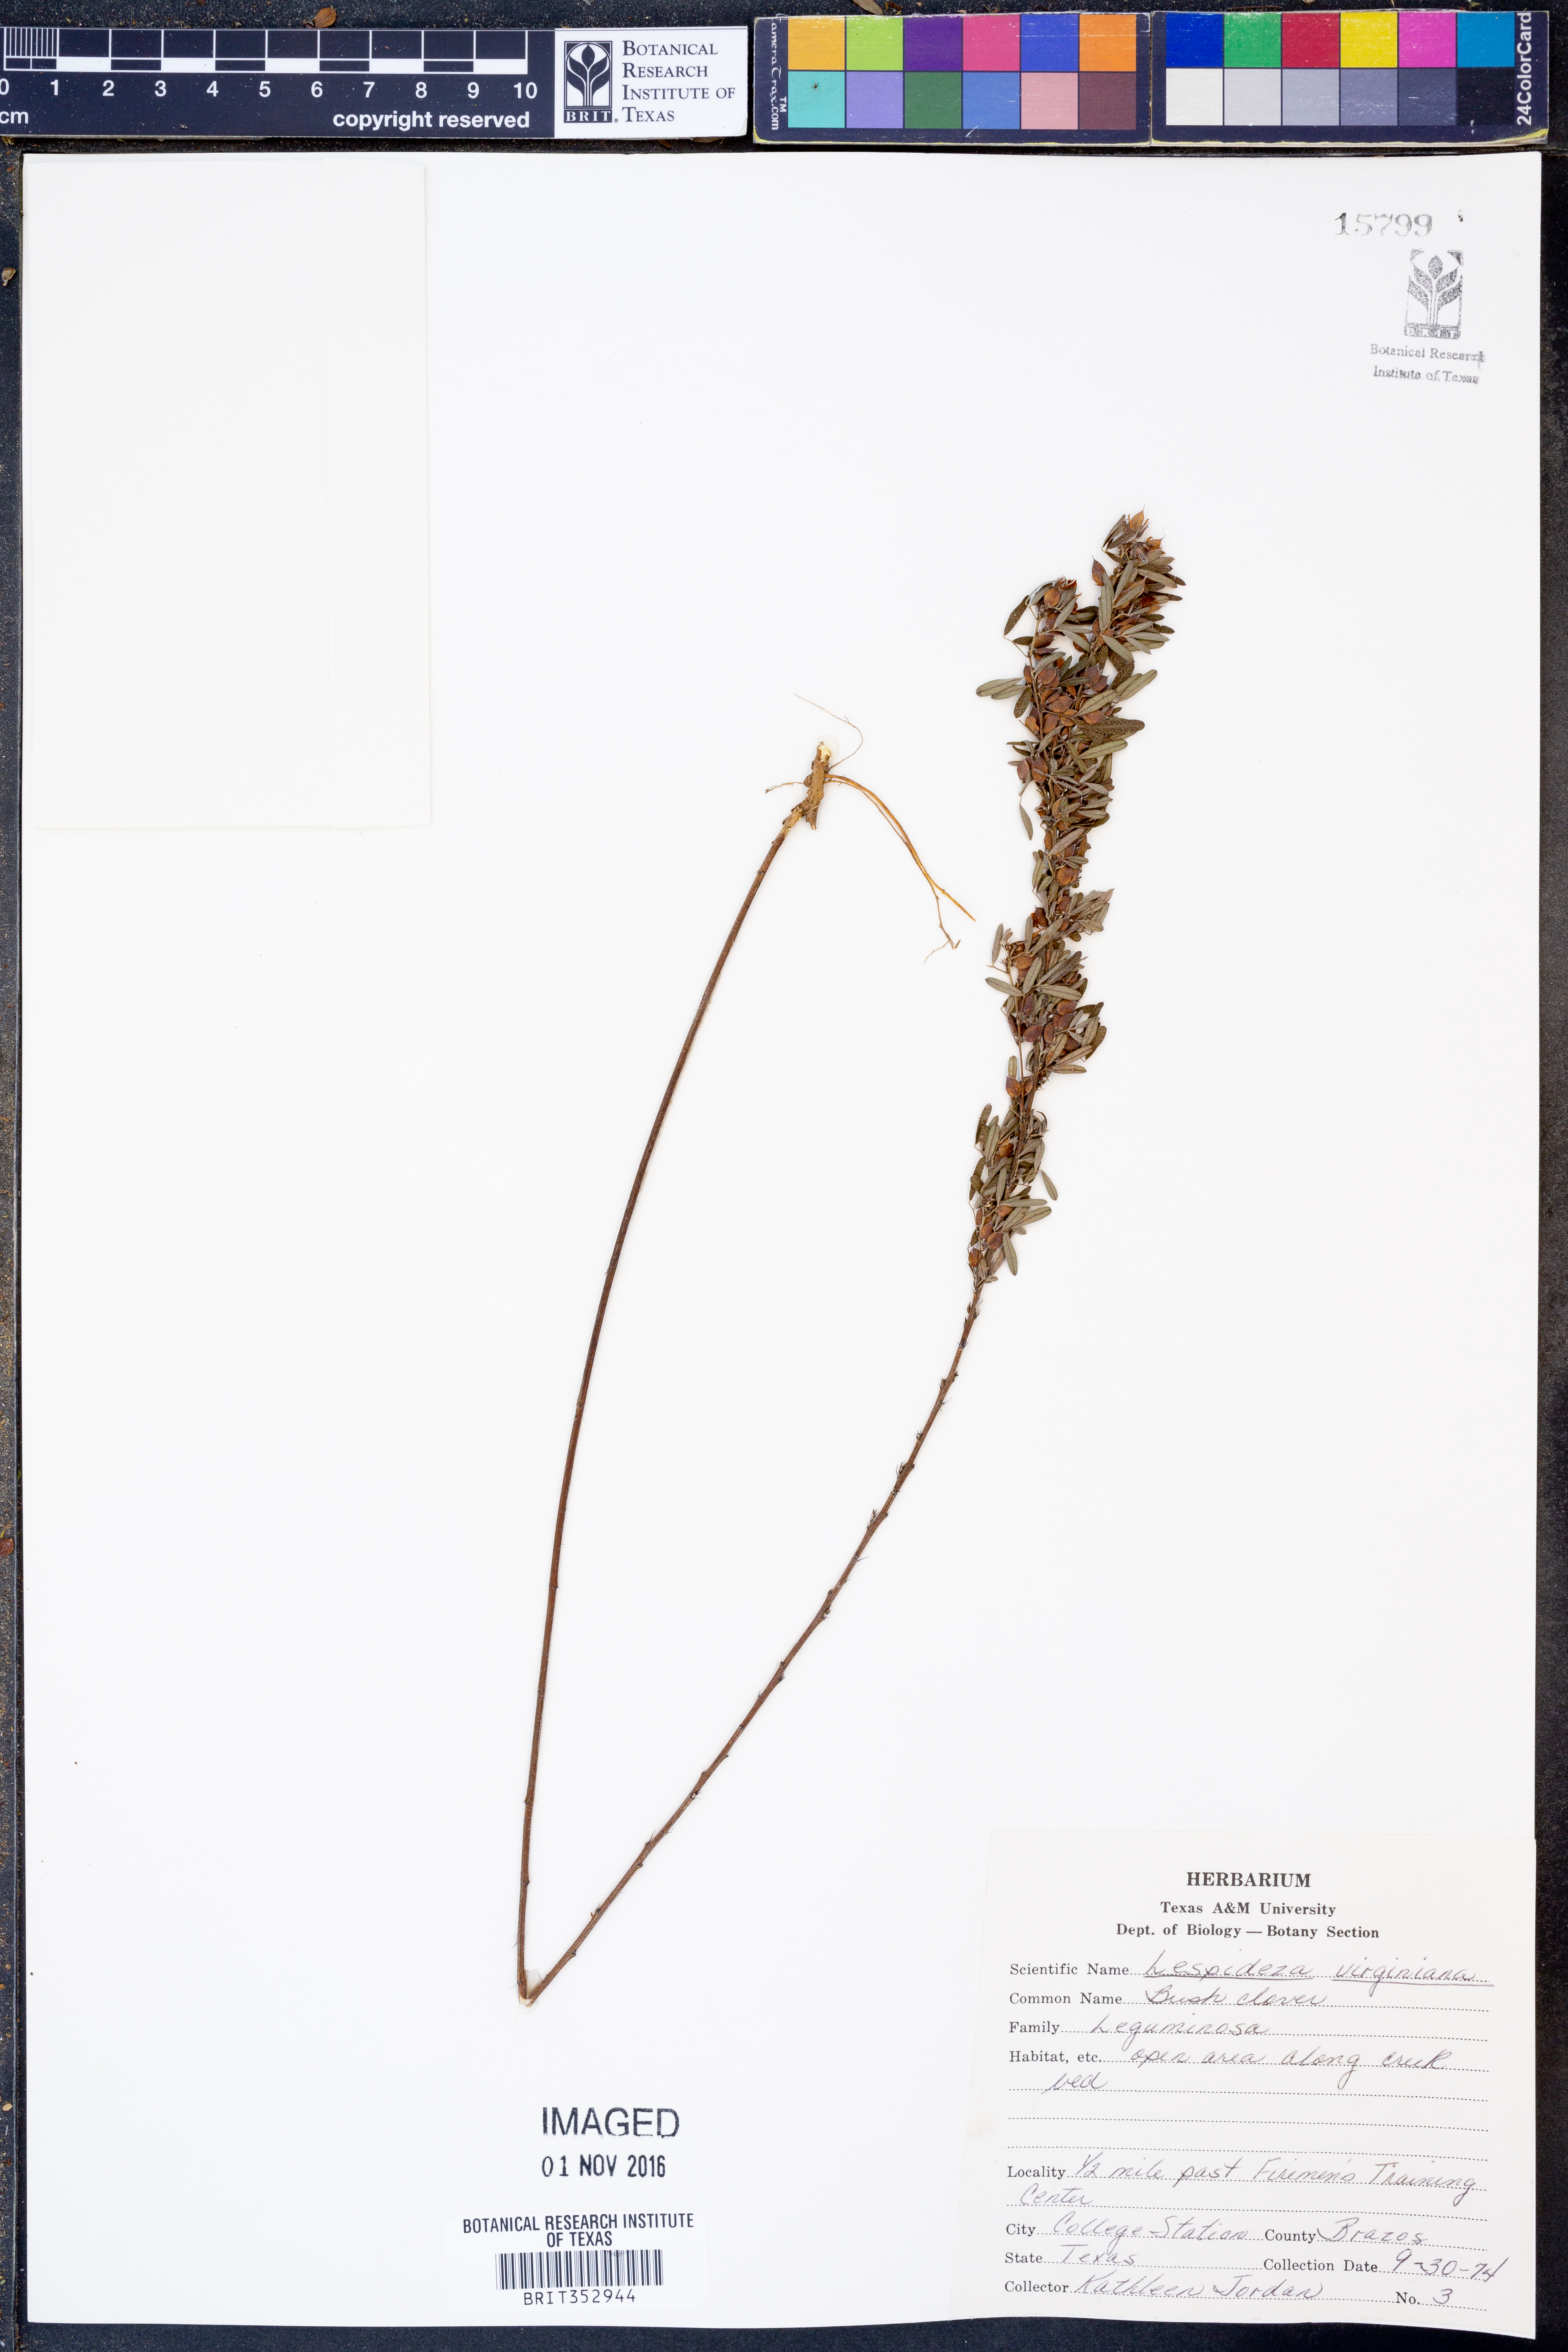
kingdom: Plantae
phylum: Tracheophyta
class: Magnoliopsida
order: Fabales
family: Fabaceae
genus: Lespedeza
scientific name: Lespedeza virginica
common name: Slender bush-clover
